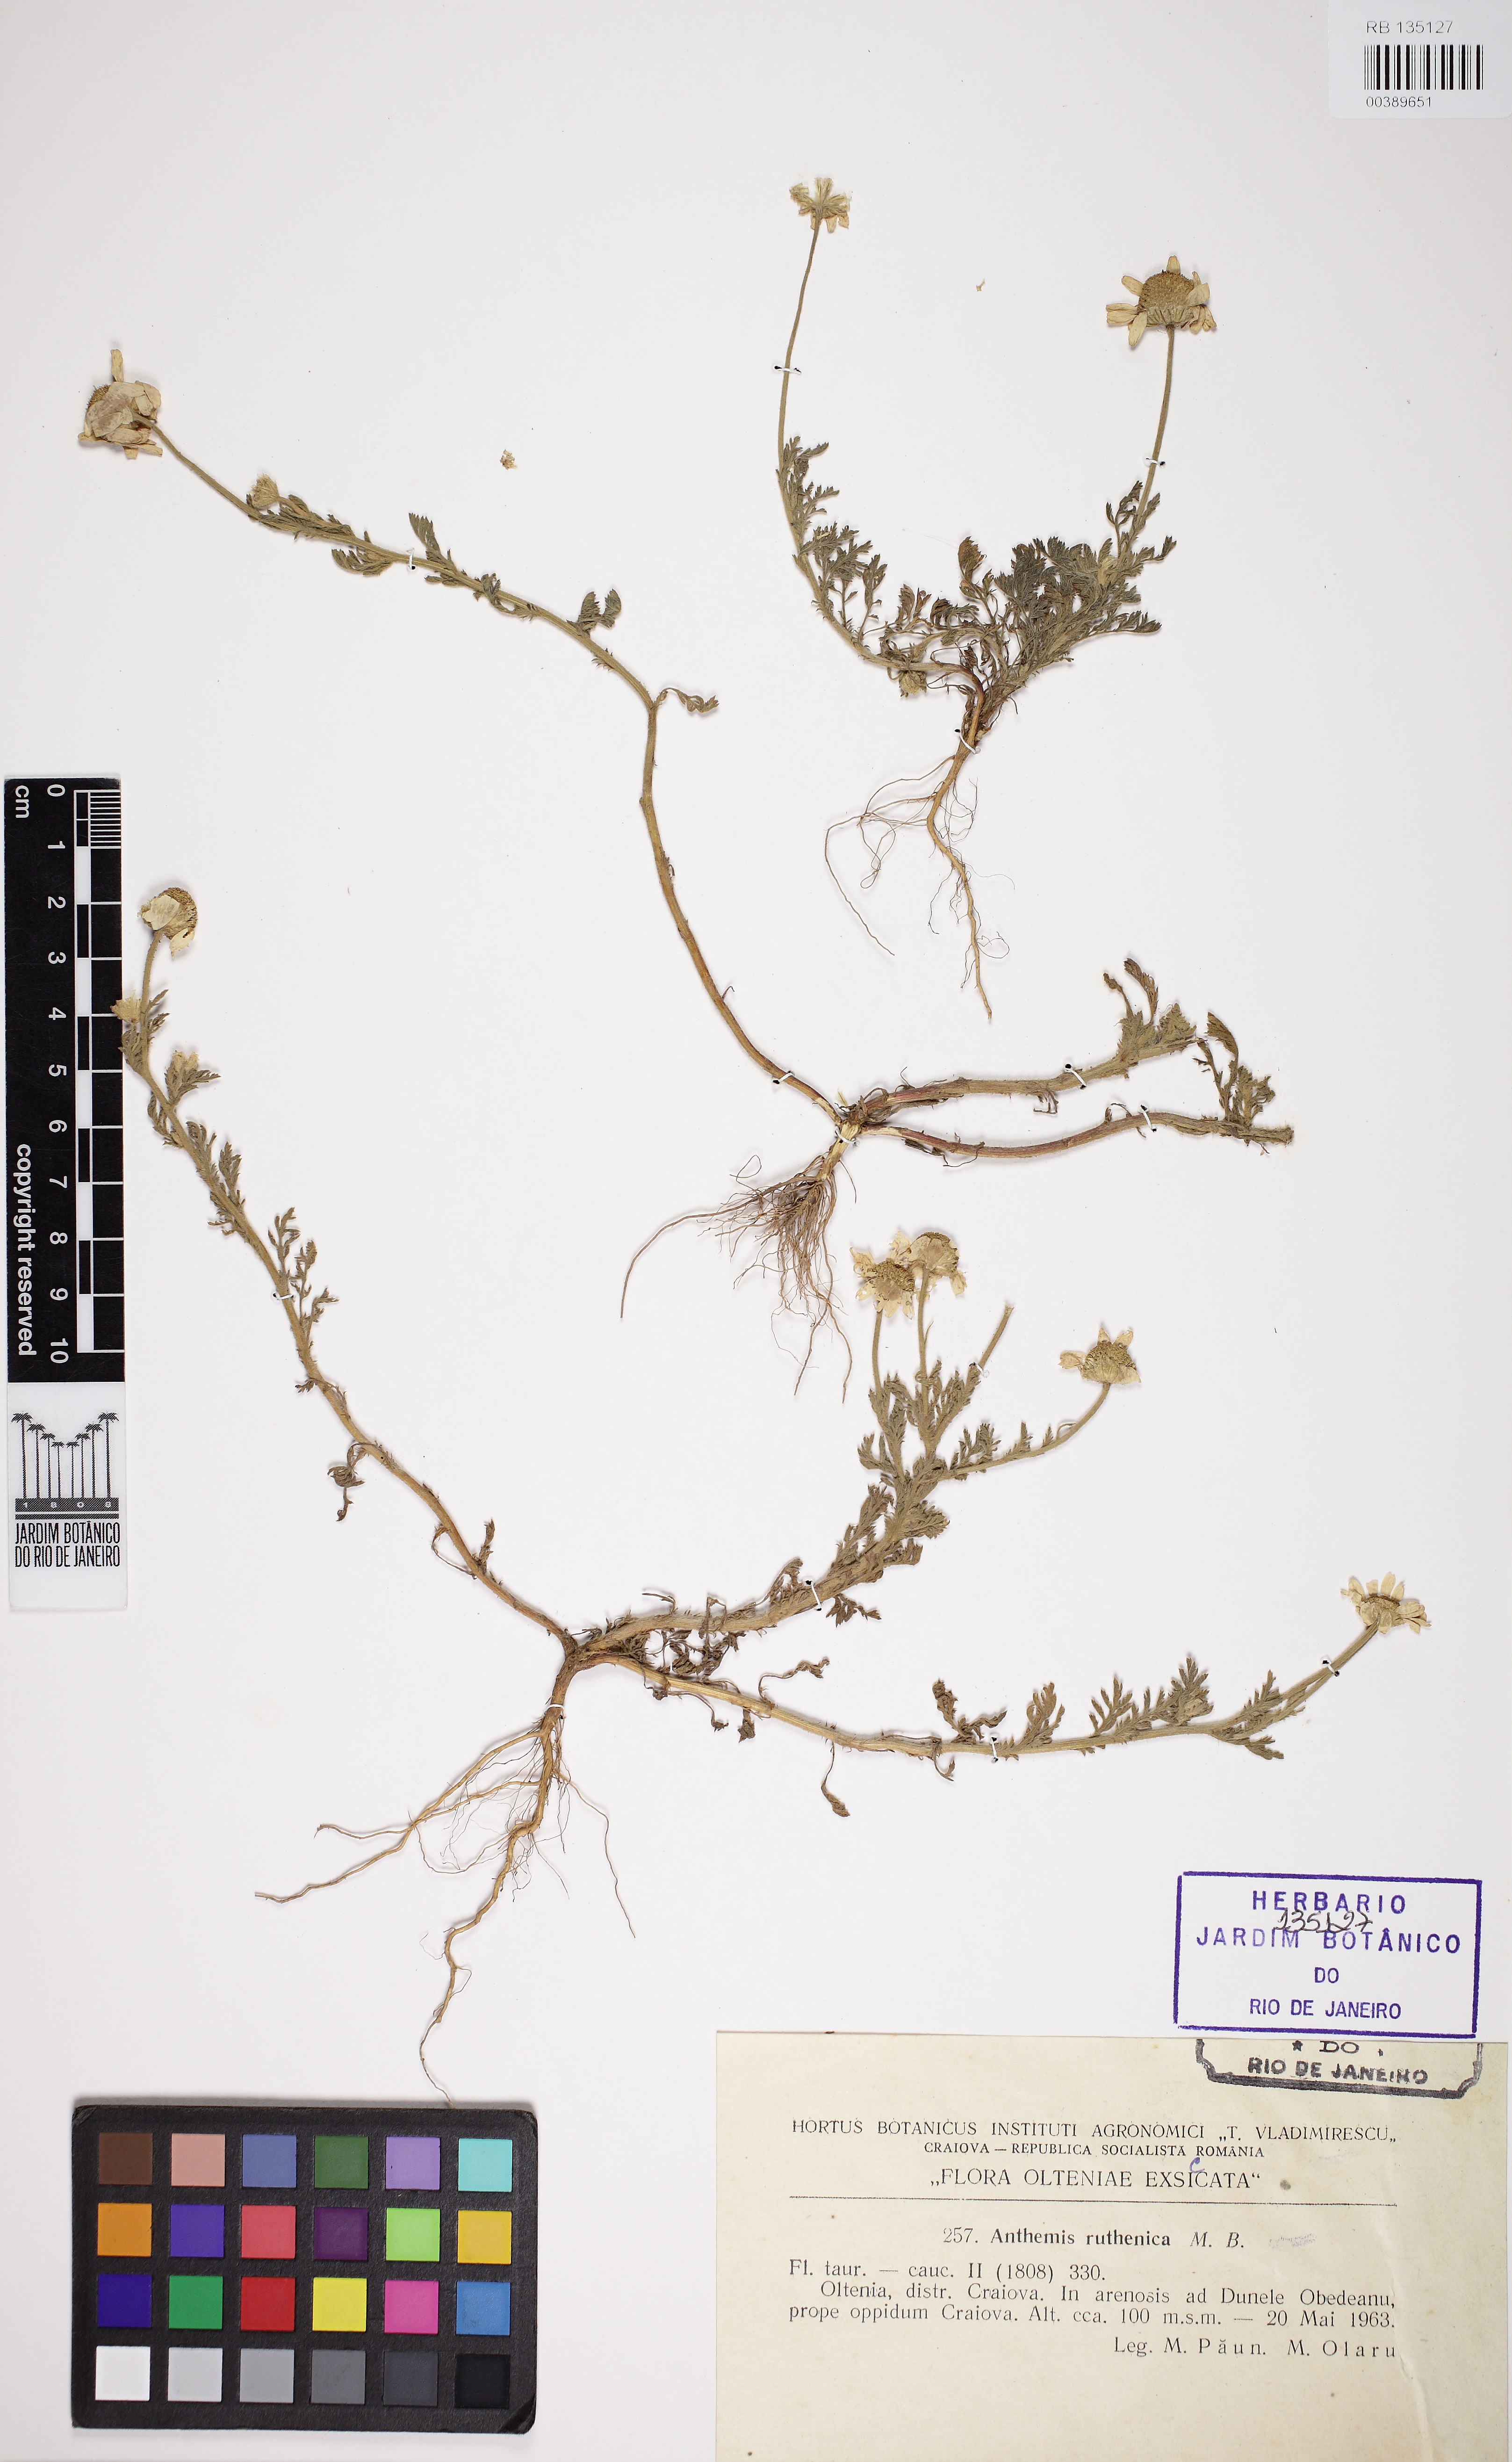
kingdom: Plantae
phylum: Tracheophyta
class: Magnoliopsida
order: Asterales
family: Asteraceae
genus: Anthemis
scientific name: Anthemis ruthenica
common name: Eastern chamomile
